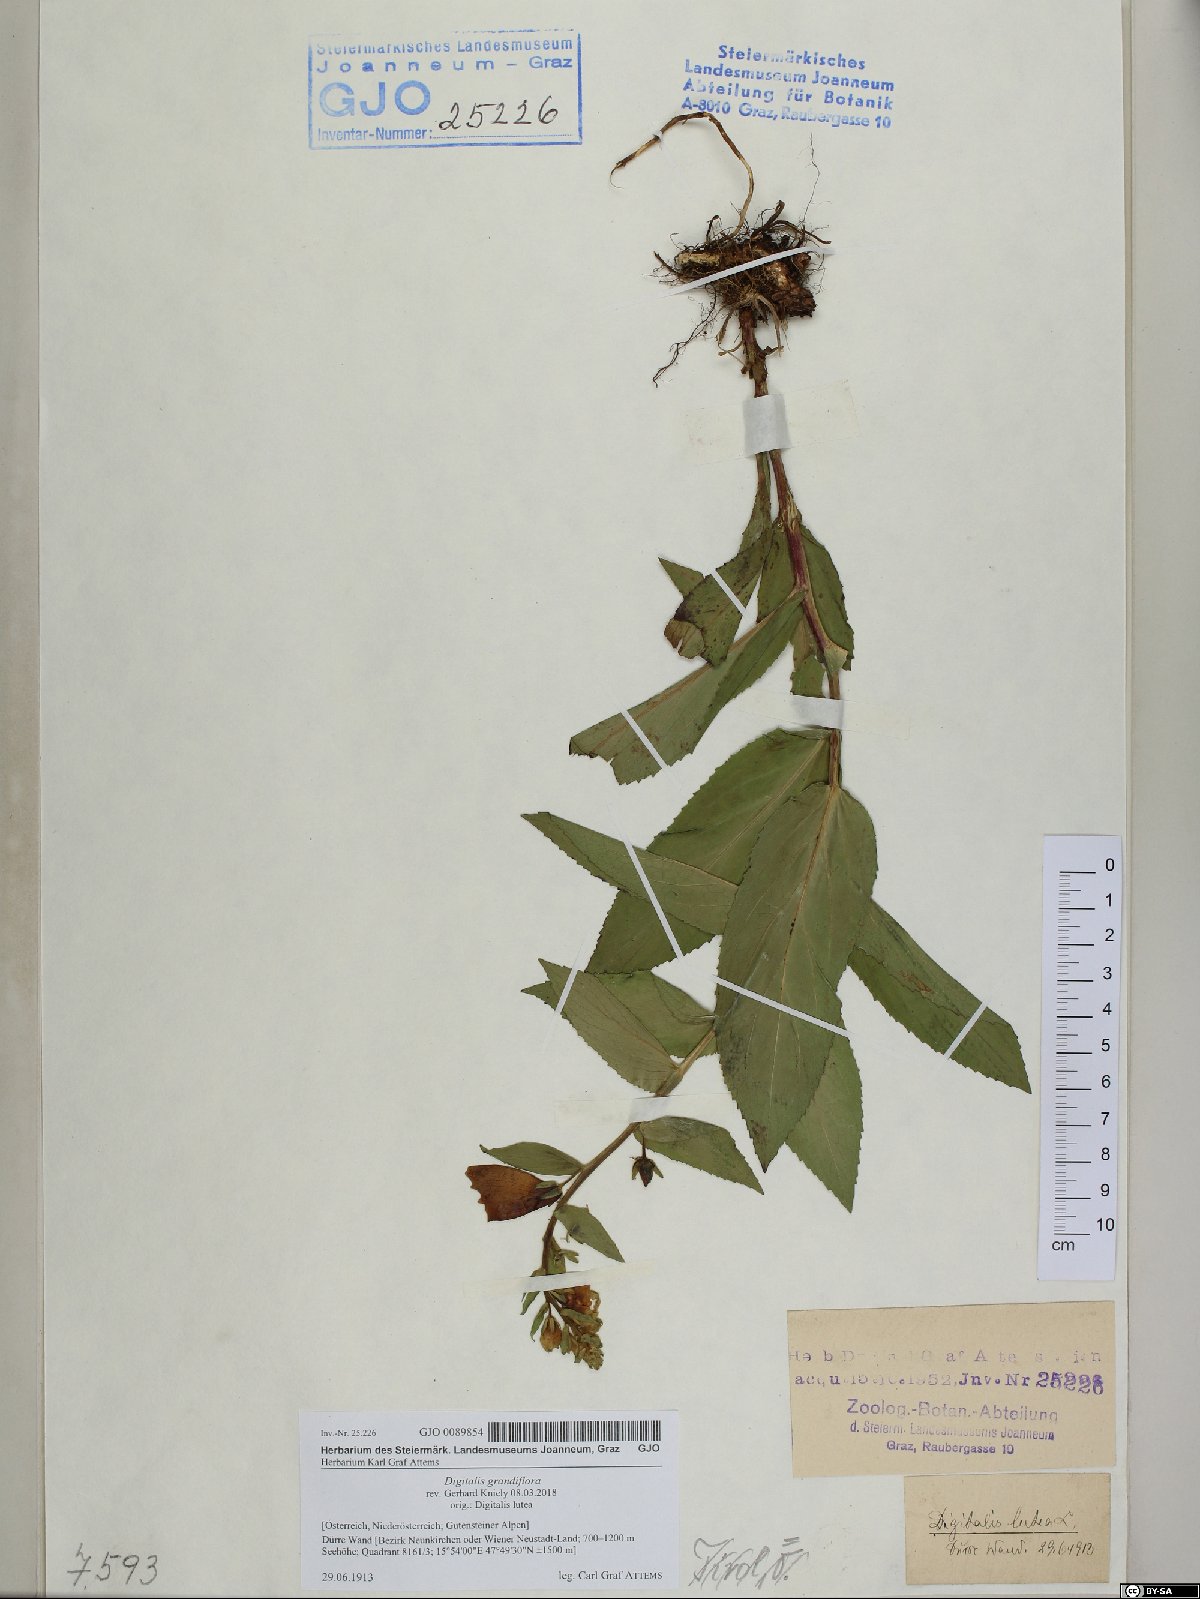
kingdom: Plantae
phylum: Tracheophyta
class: Magnoliopsida
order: Lamiales
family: Plantaginaceae
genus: Digitalis
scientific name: Digitalis grandiflora
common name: Yellow foxglove
